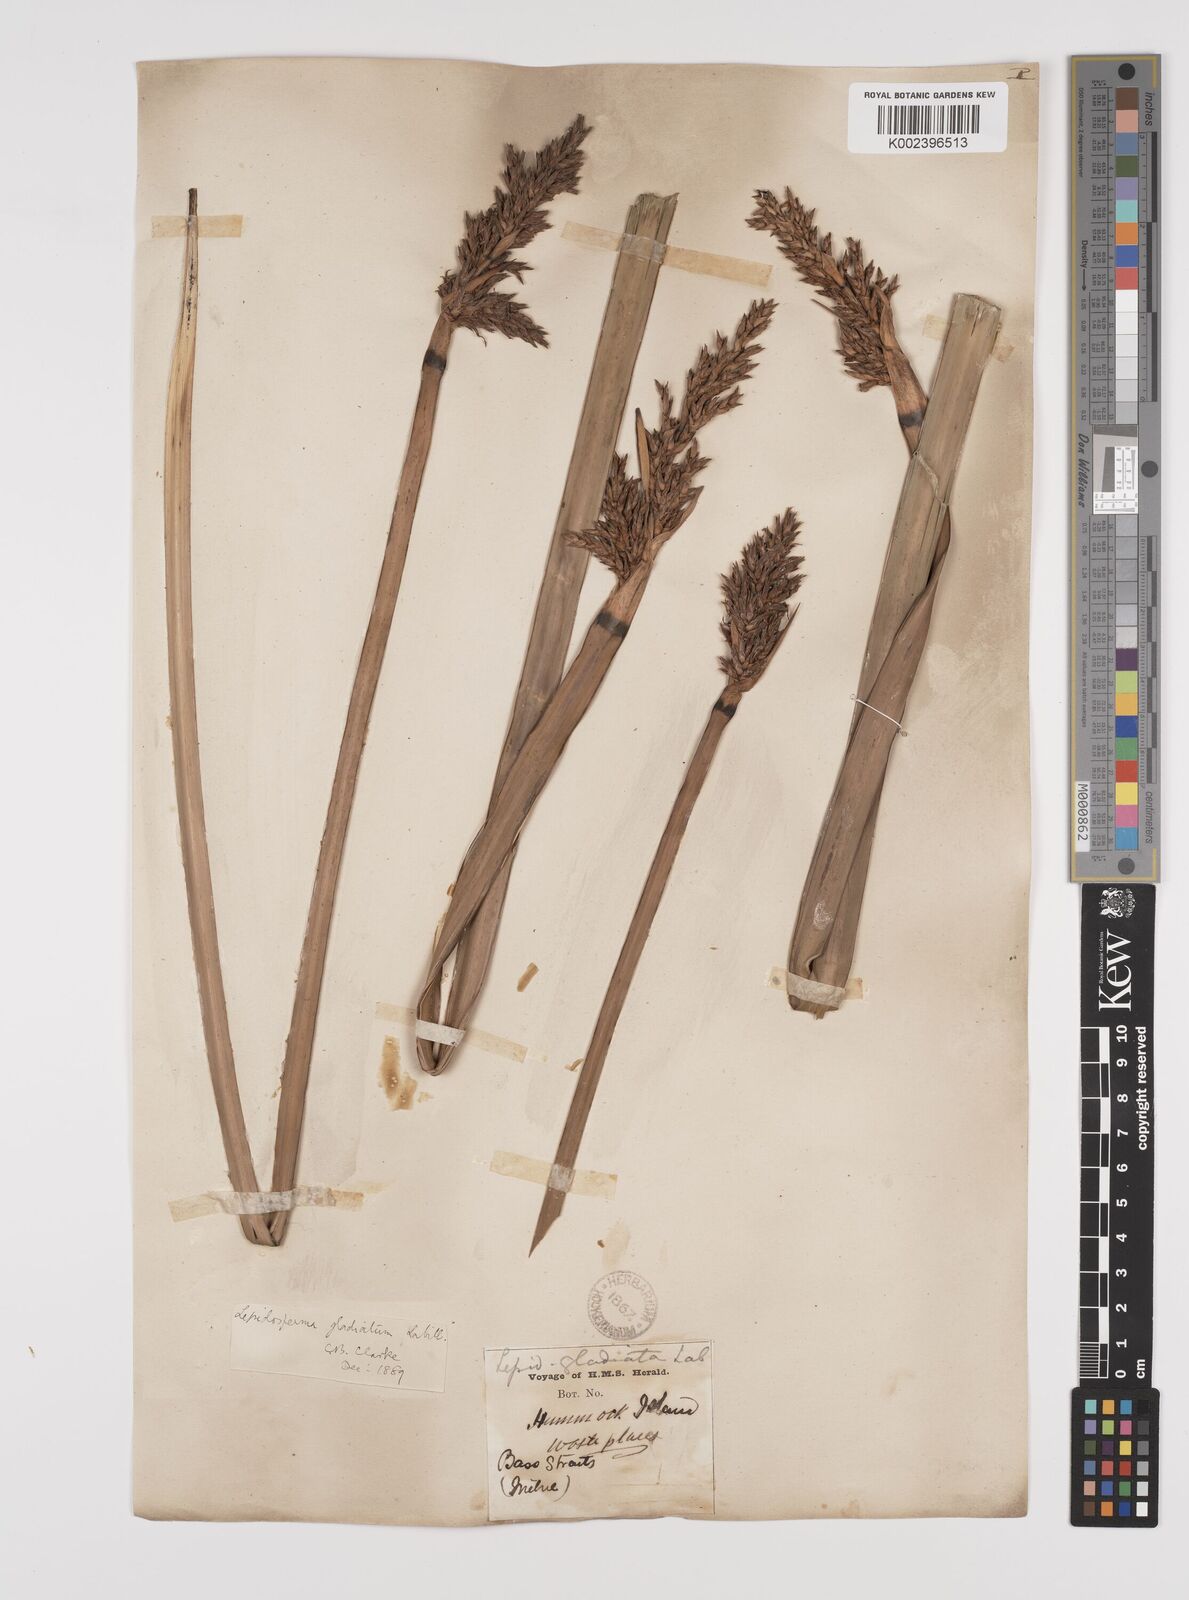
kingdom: Plantae
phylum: Tracheophyta
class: Liliopsida
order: Poales
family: Cyperaceae
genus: Lepidosperma
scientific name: Lepidosperma gladiatum
